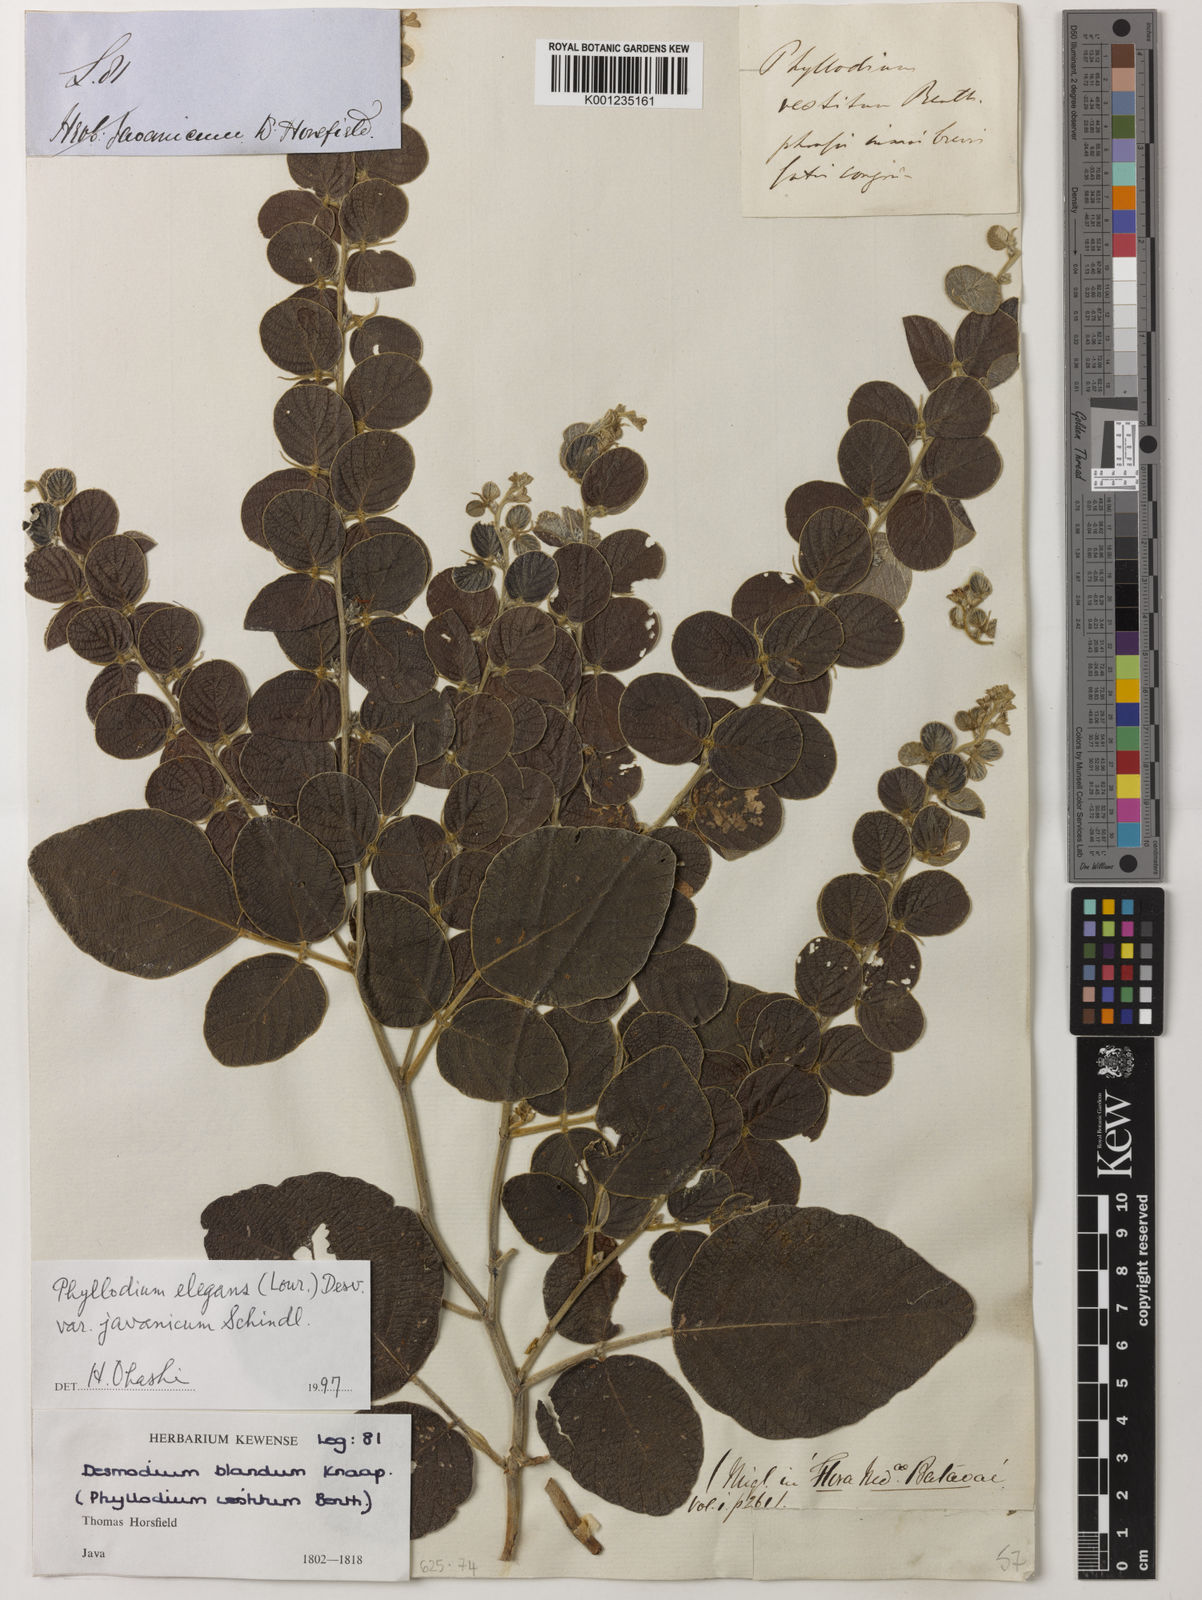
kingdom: Plantae
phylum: Tracheophyta
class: Magnoliopsida
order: Fabales
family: Fabaceae
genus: Phyllodium
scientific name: Phyllodium
